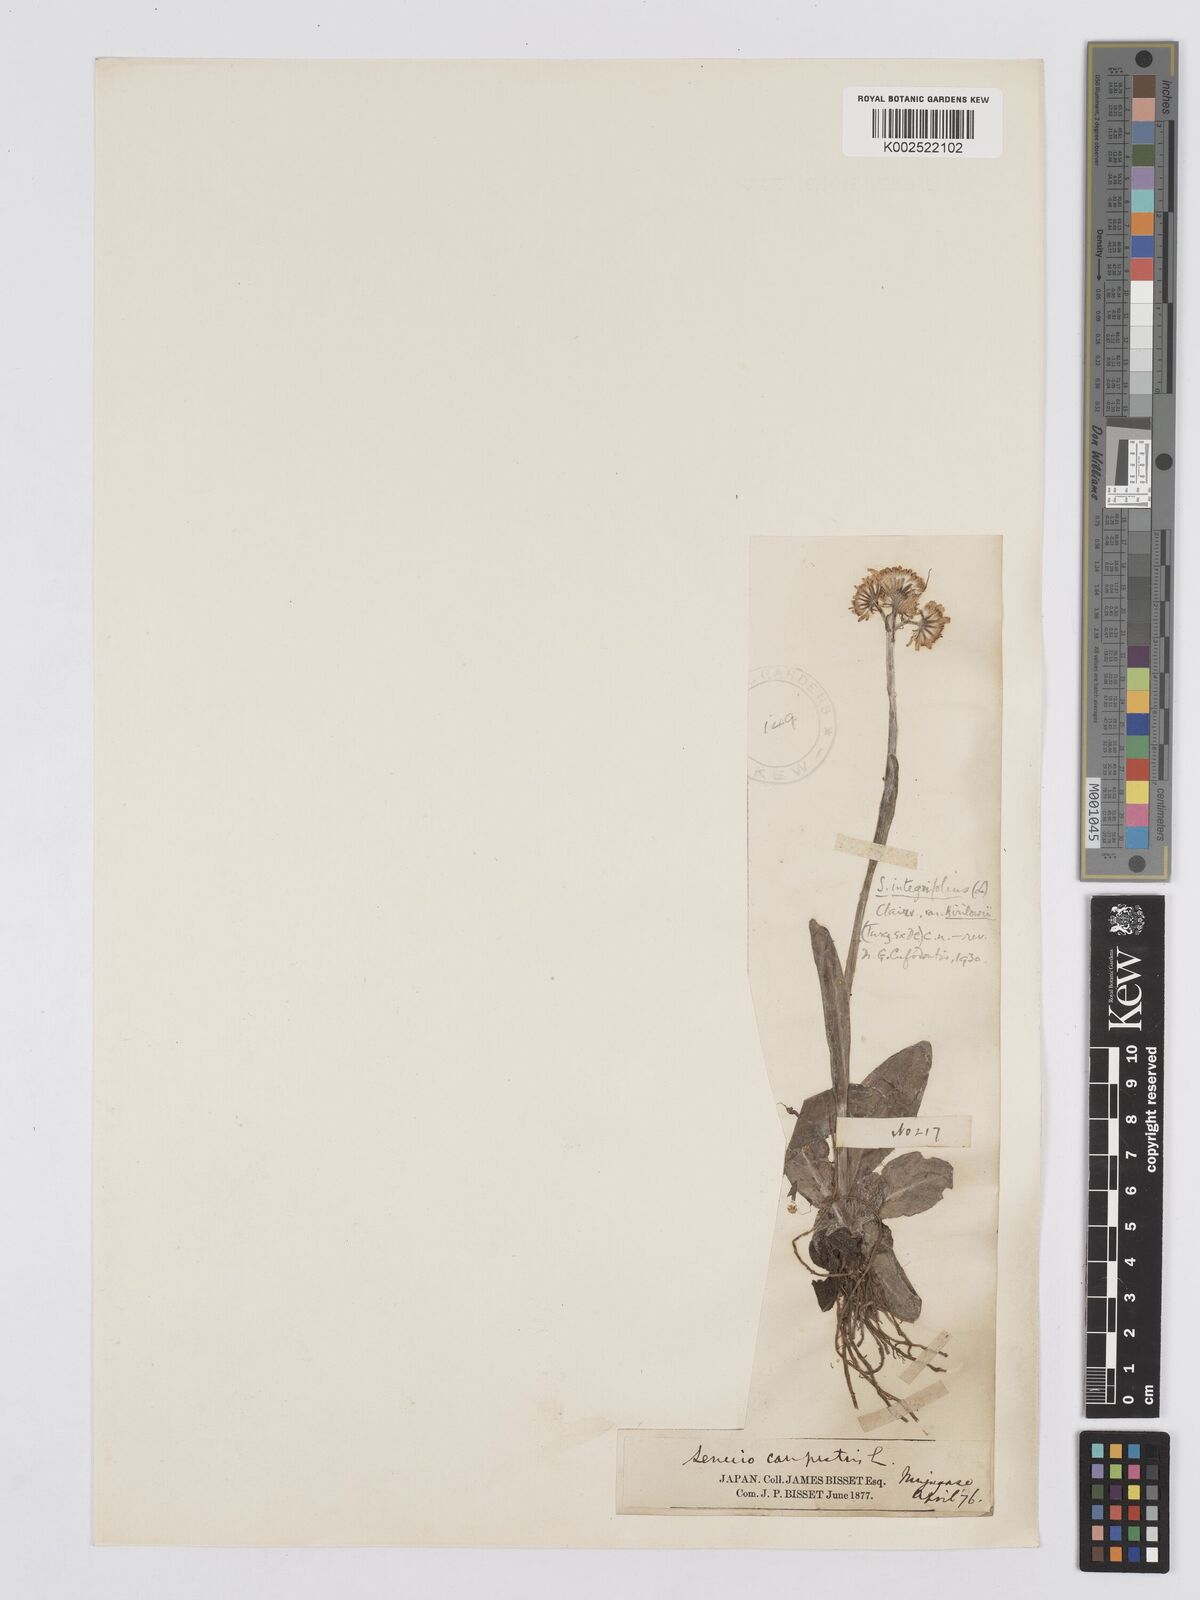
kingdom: Plantae
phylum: Tracheophyta
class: Magnoliopsida
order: Asterales
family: Asteraceae
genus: Tephroseris
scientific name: Tephroseris kirilowii
